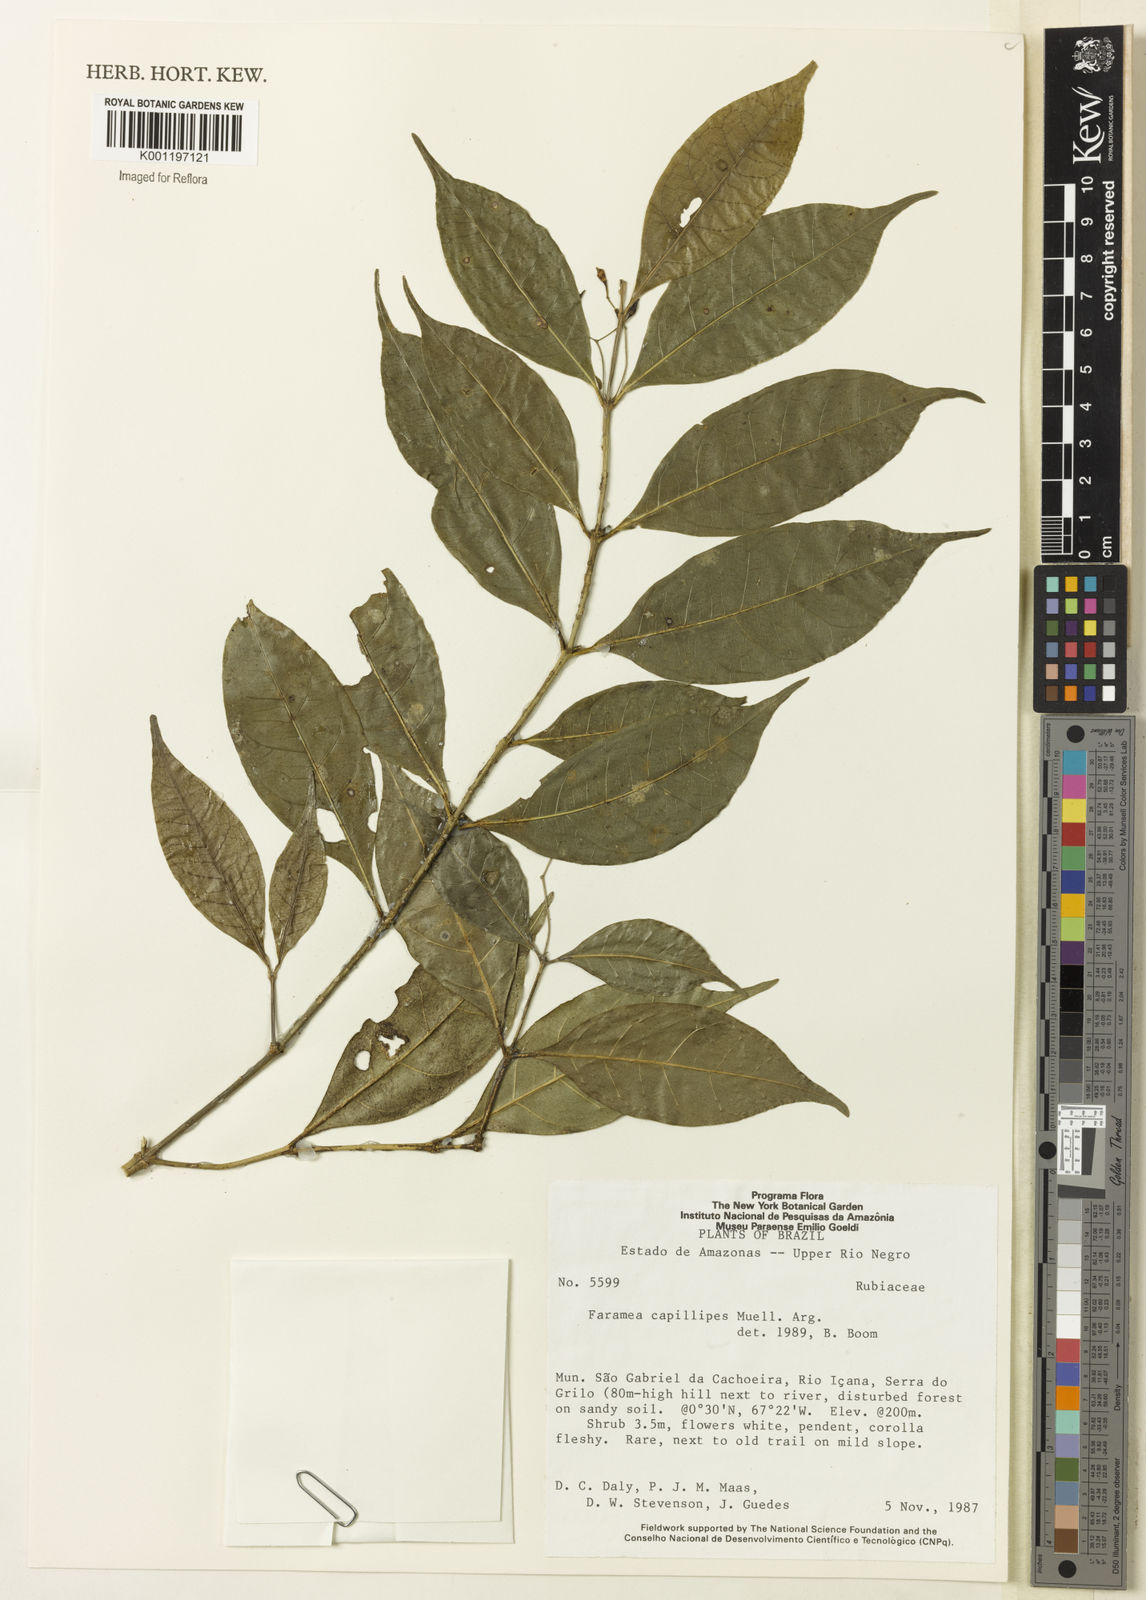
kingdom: Plantae
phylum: Tracheophyta
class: Magnoliopsida
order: Gentianales
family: Rubiaceae
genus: Faramea
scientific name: Faramea
